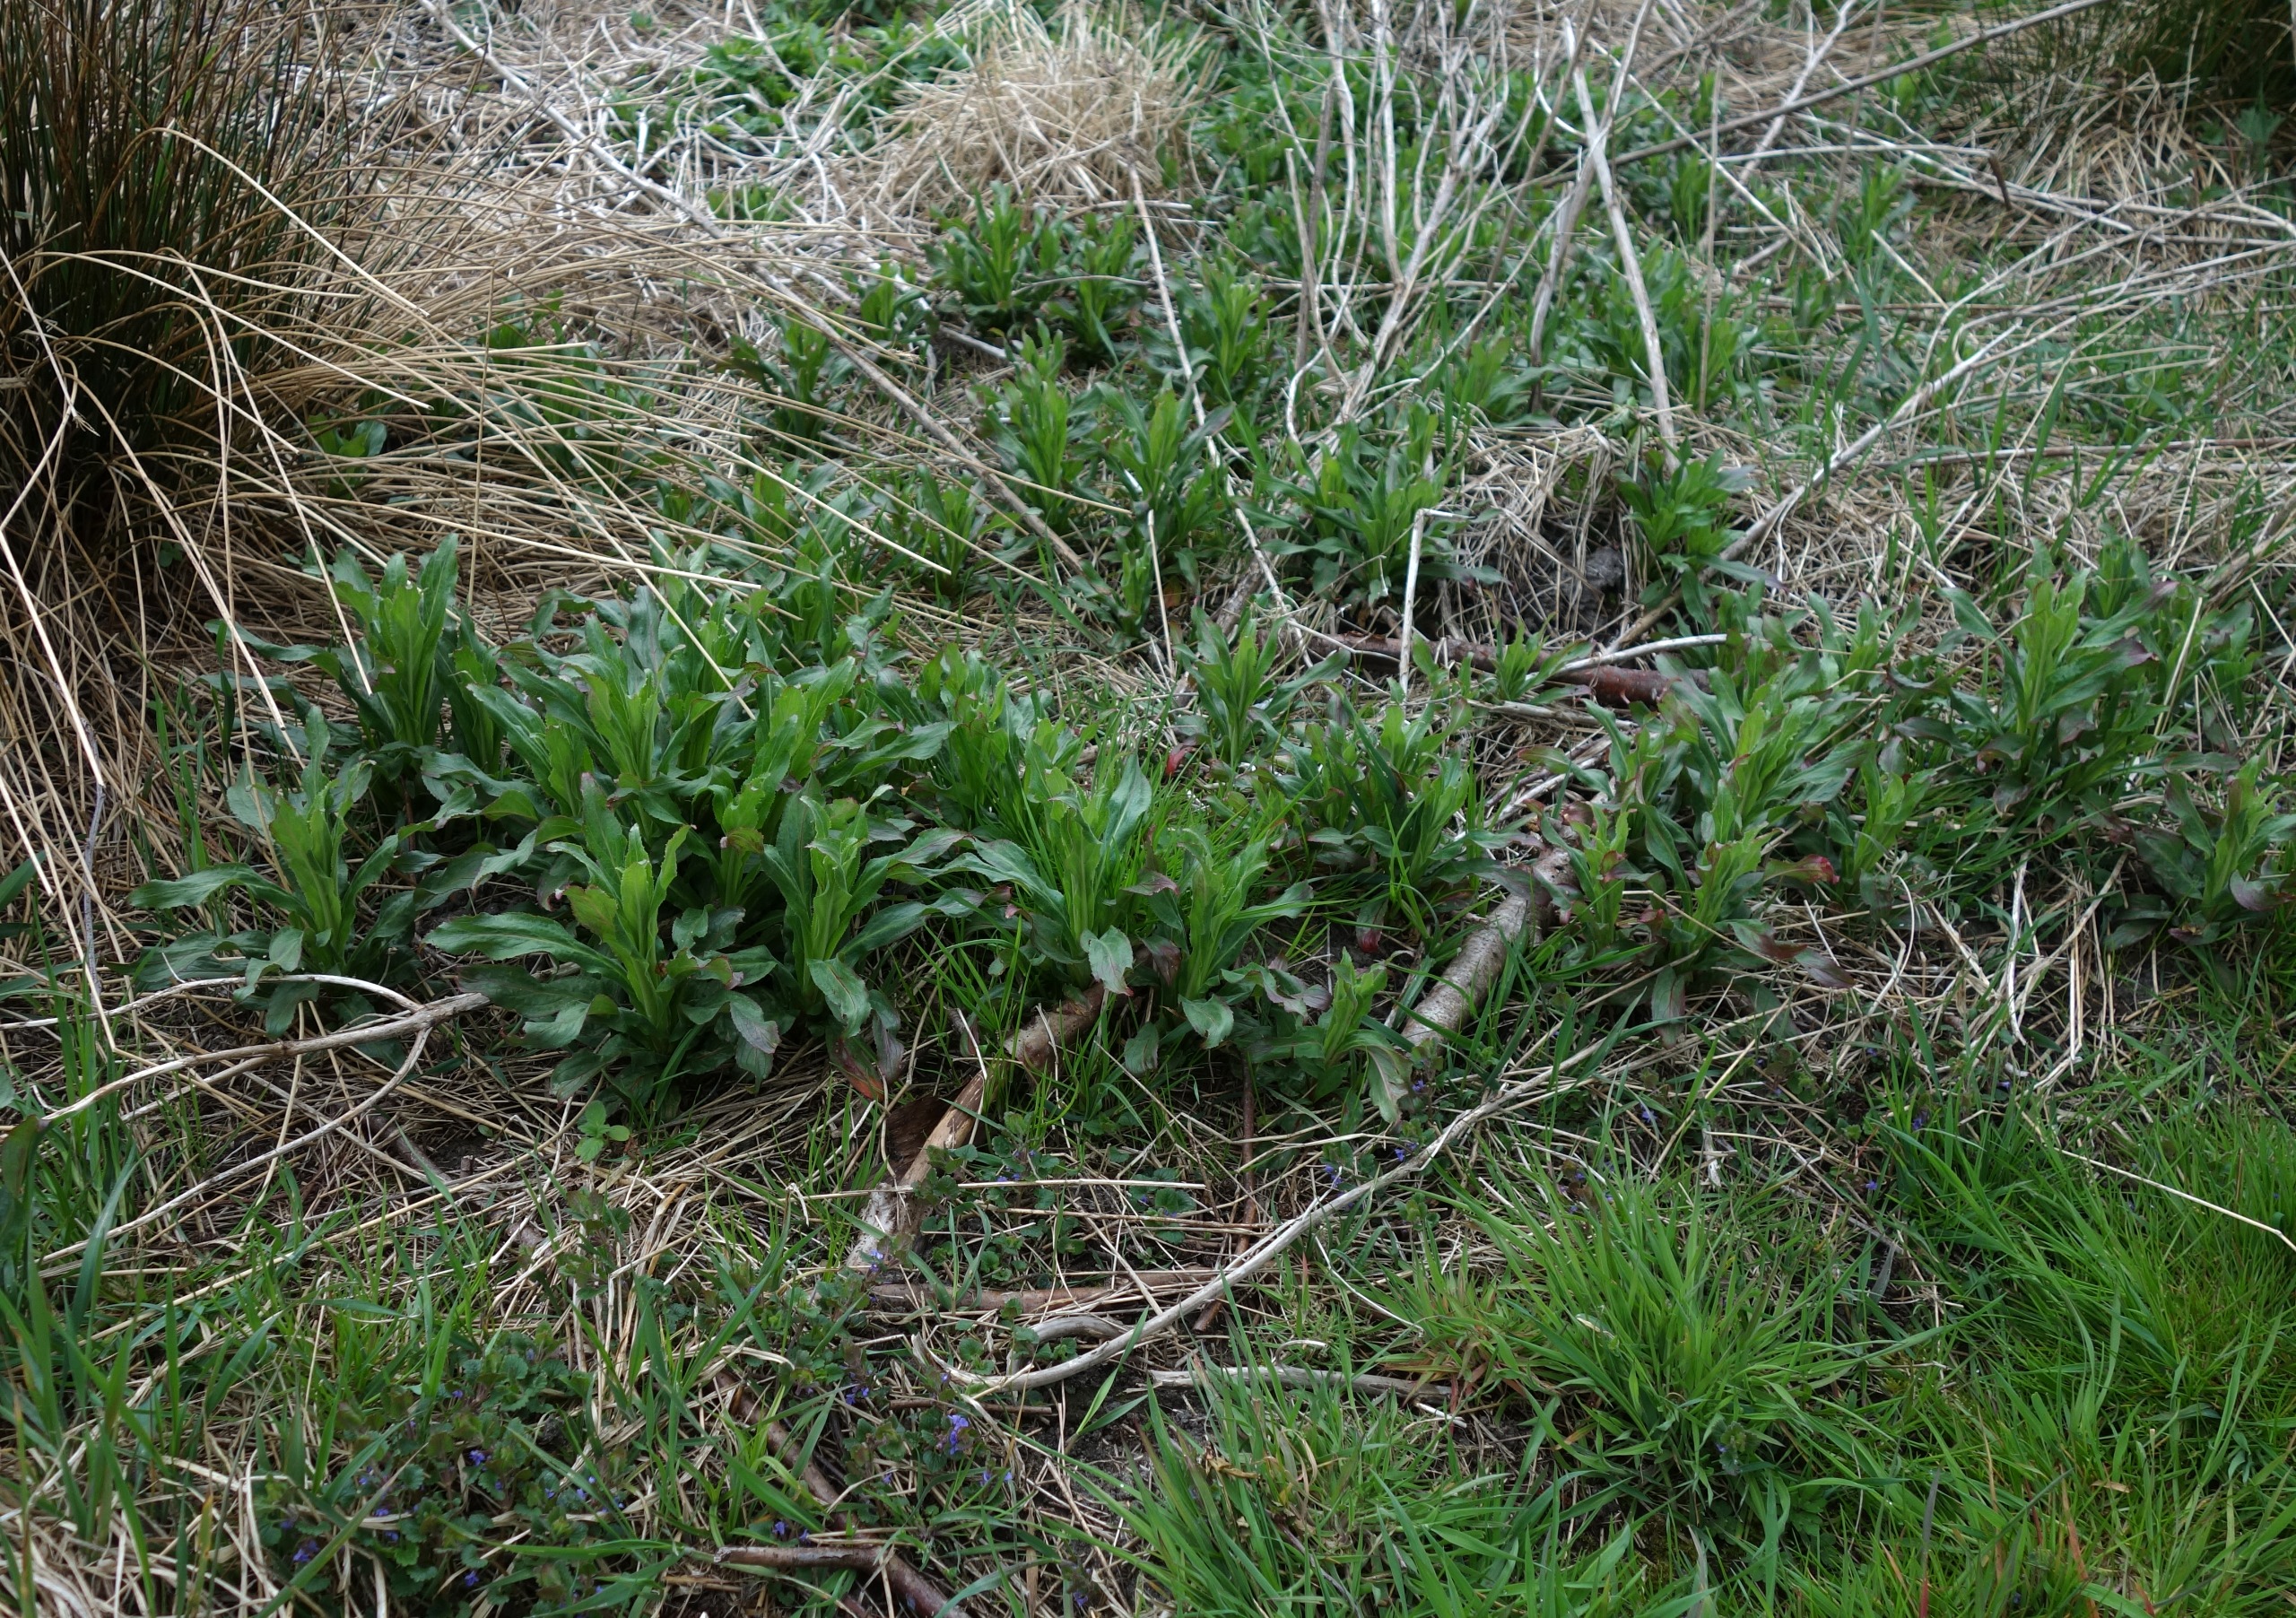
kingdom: Plantae
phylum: Tracheophyta
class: Magnoliopsida
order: Myrtales
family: Onagraceae
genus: Epilobium
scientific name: Epilobium hirsutum
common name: Lådden dueurt
